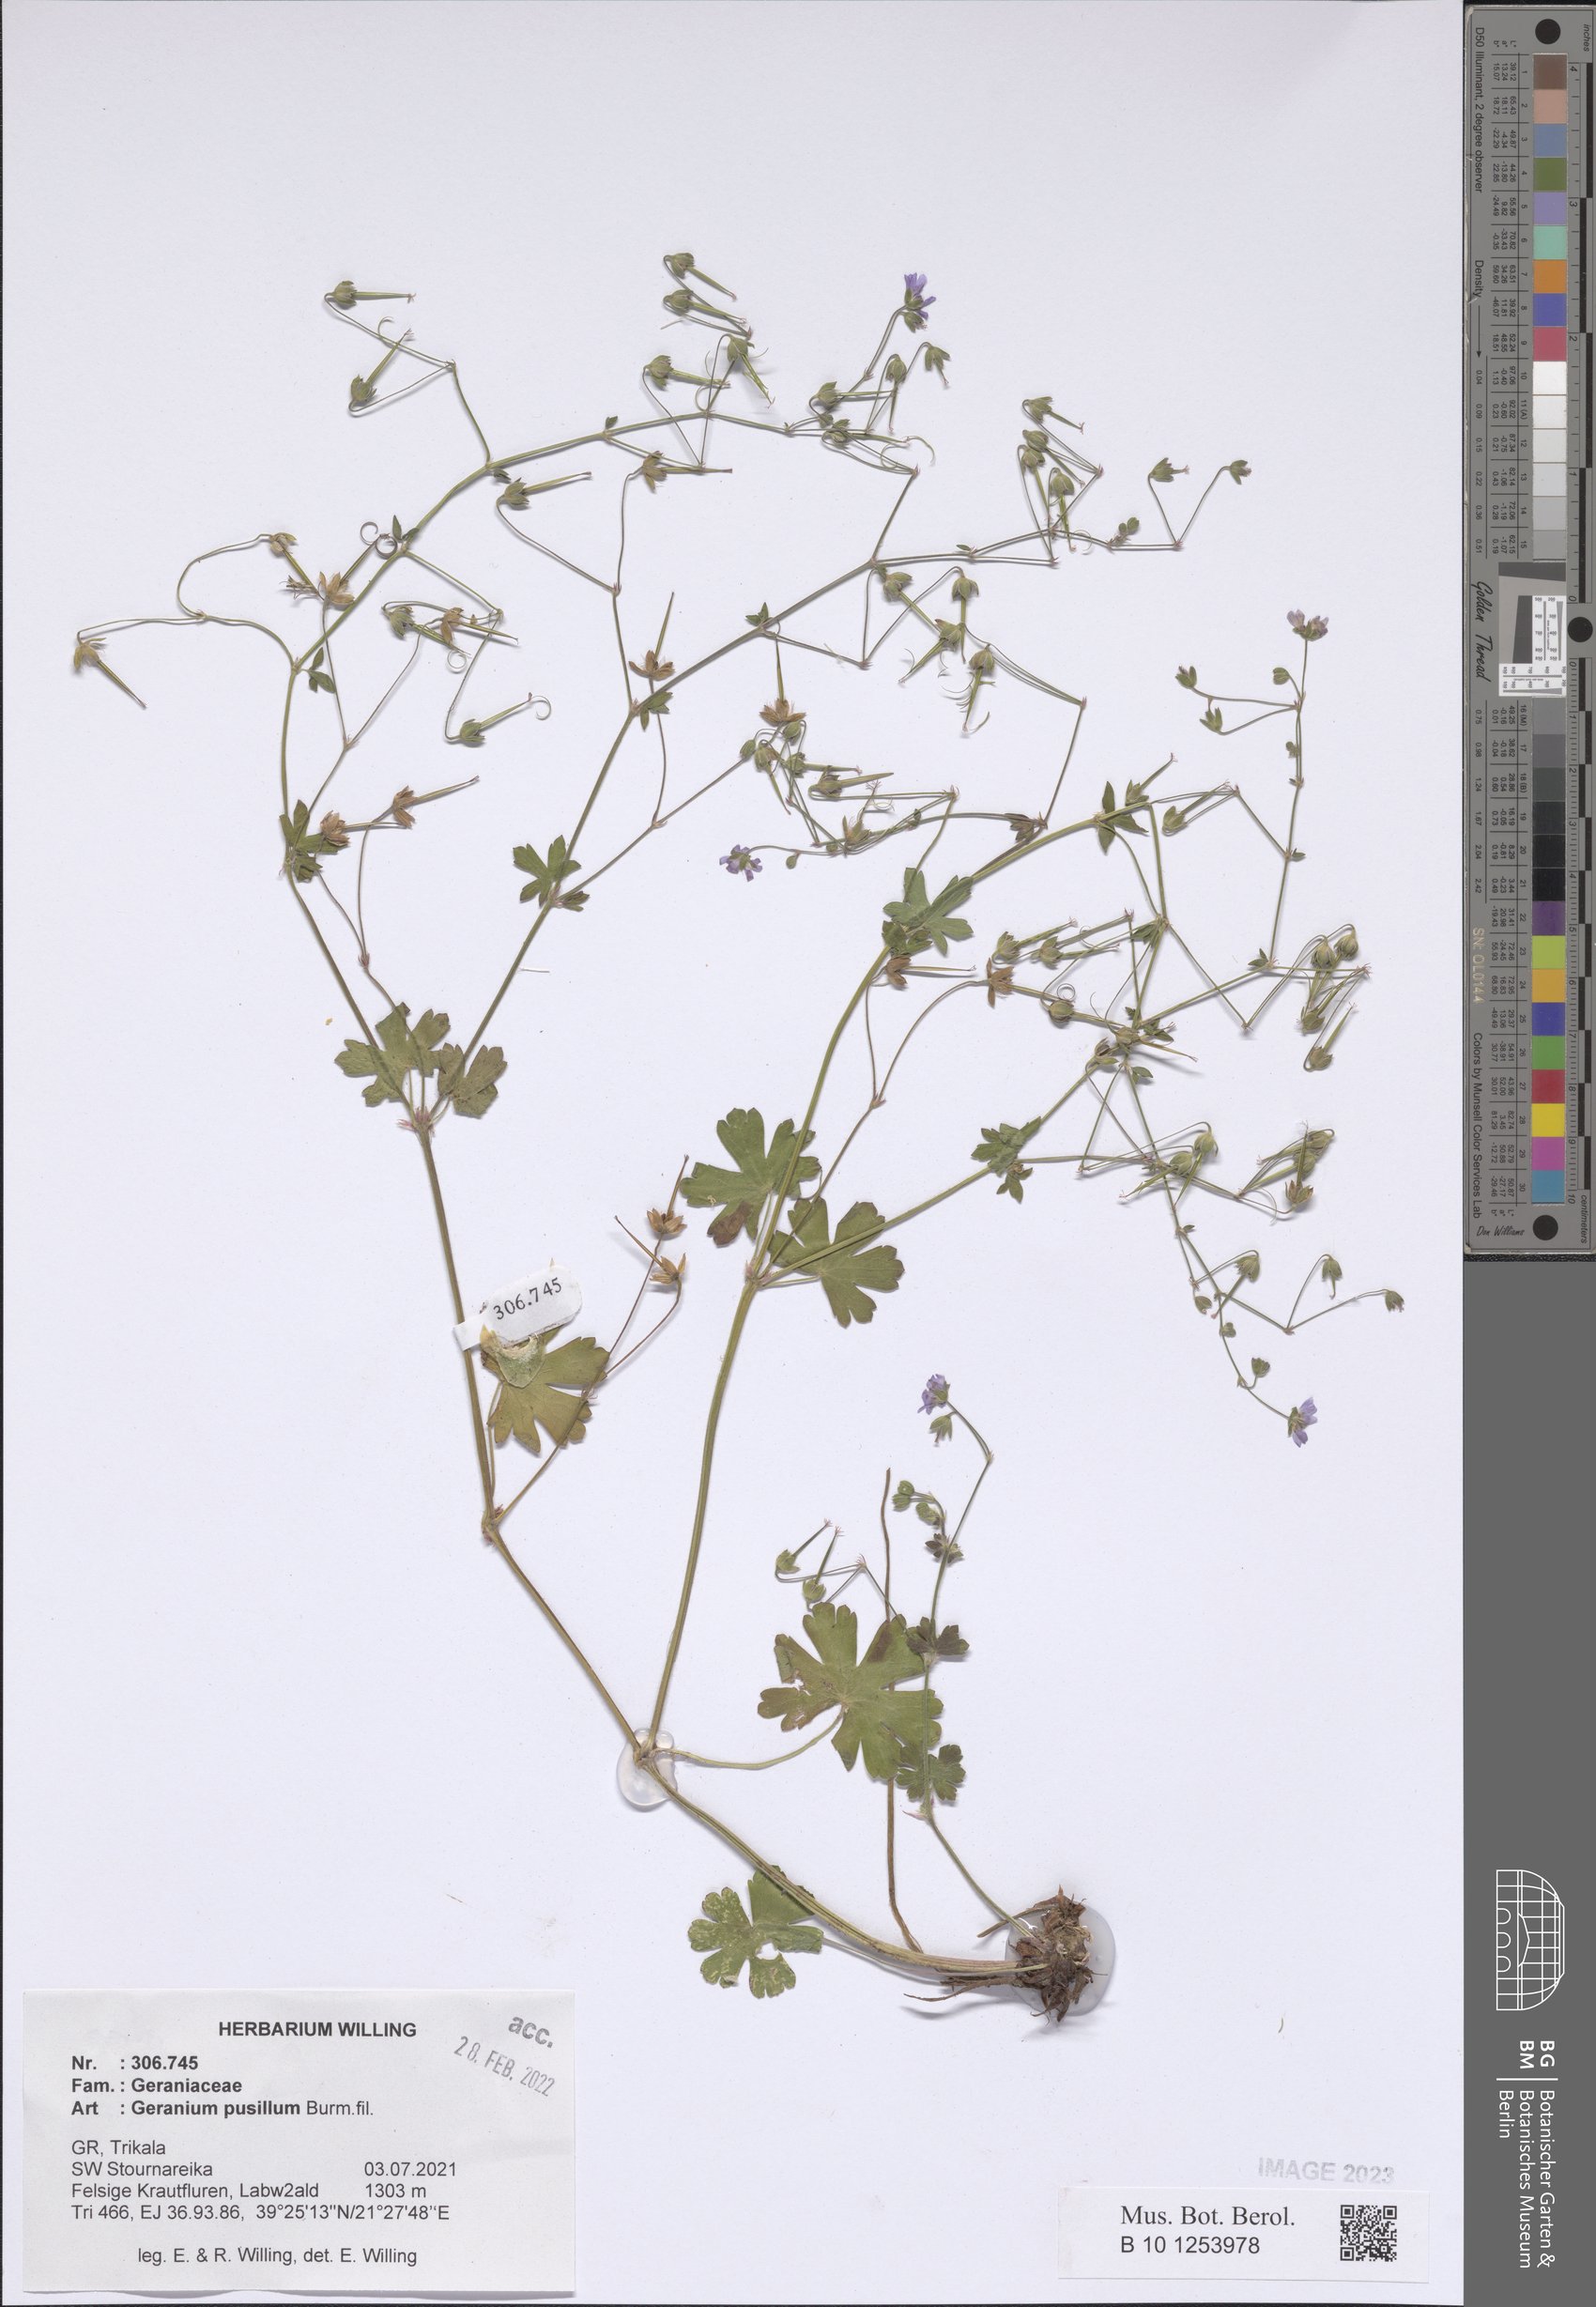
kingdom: Plantae
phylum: Tracheophyta
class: Magnoliopsida
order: Geraniales
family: Geraniaceae
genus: Geranium
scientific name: Geranium pusillum
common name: Small geranium
